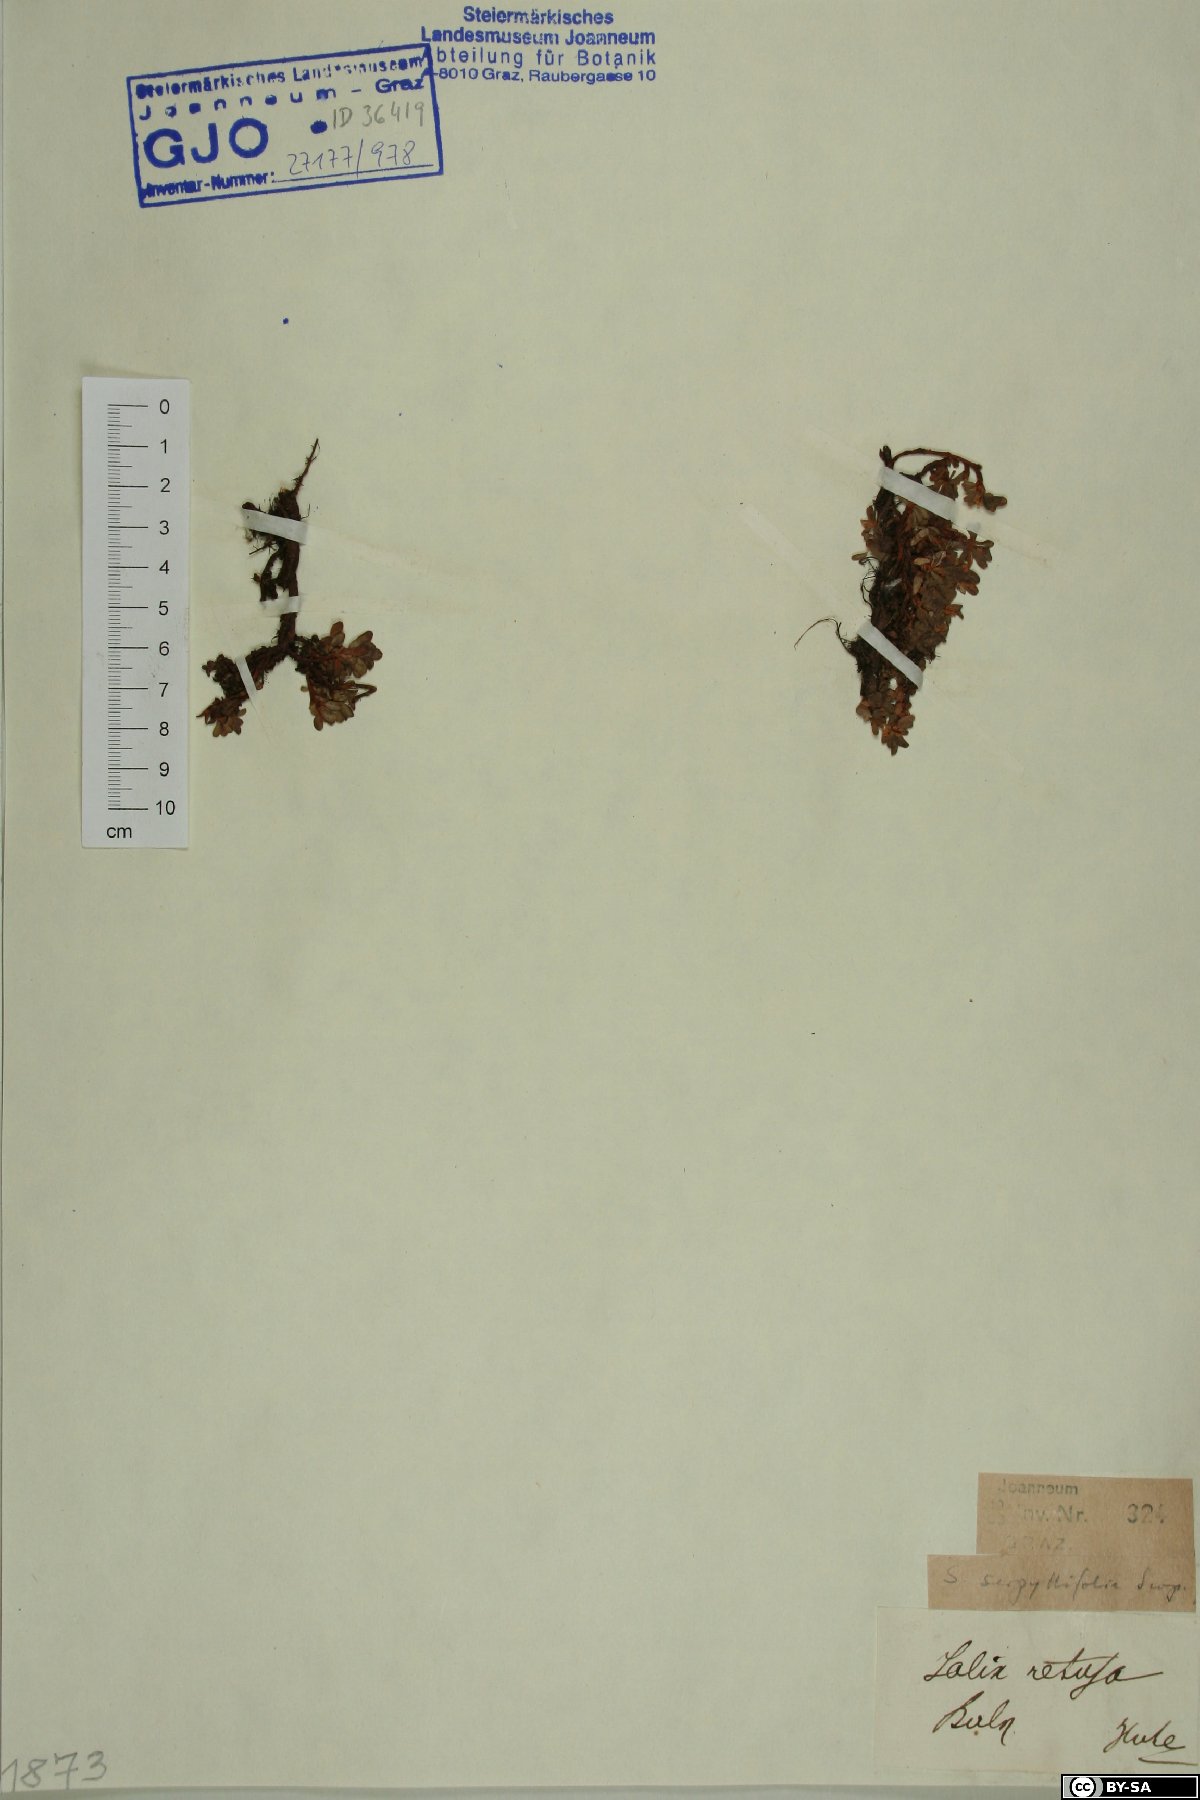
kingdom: Plantae
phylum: Tracheophyta
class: Magnoliopsida
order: Malpighiales
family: Salicaceae
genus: Salix
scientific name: Salix serpillifolia
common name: Thyme-leaf willow
